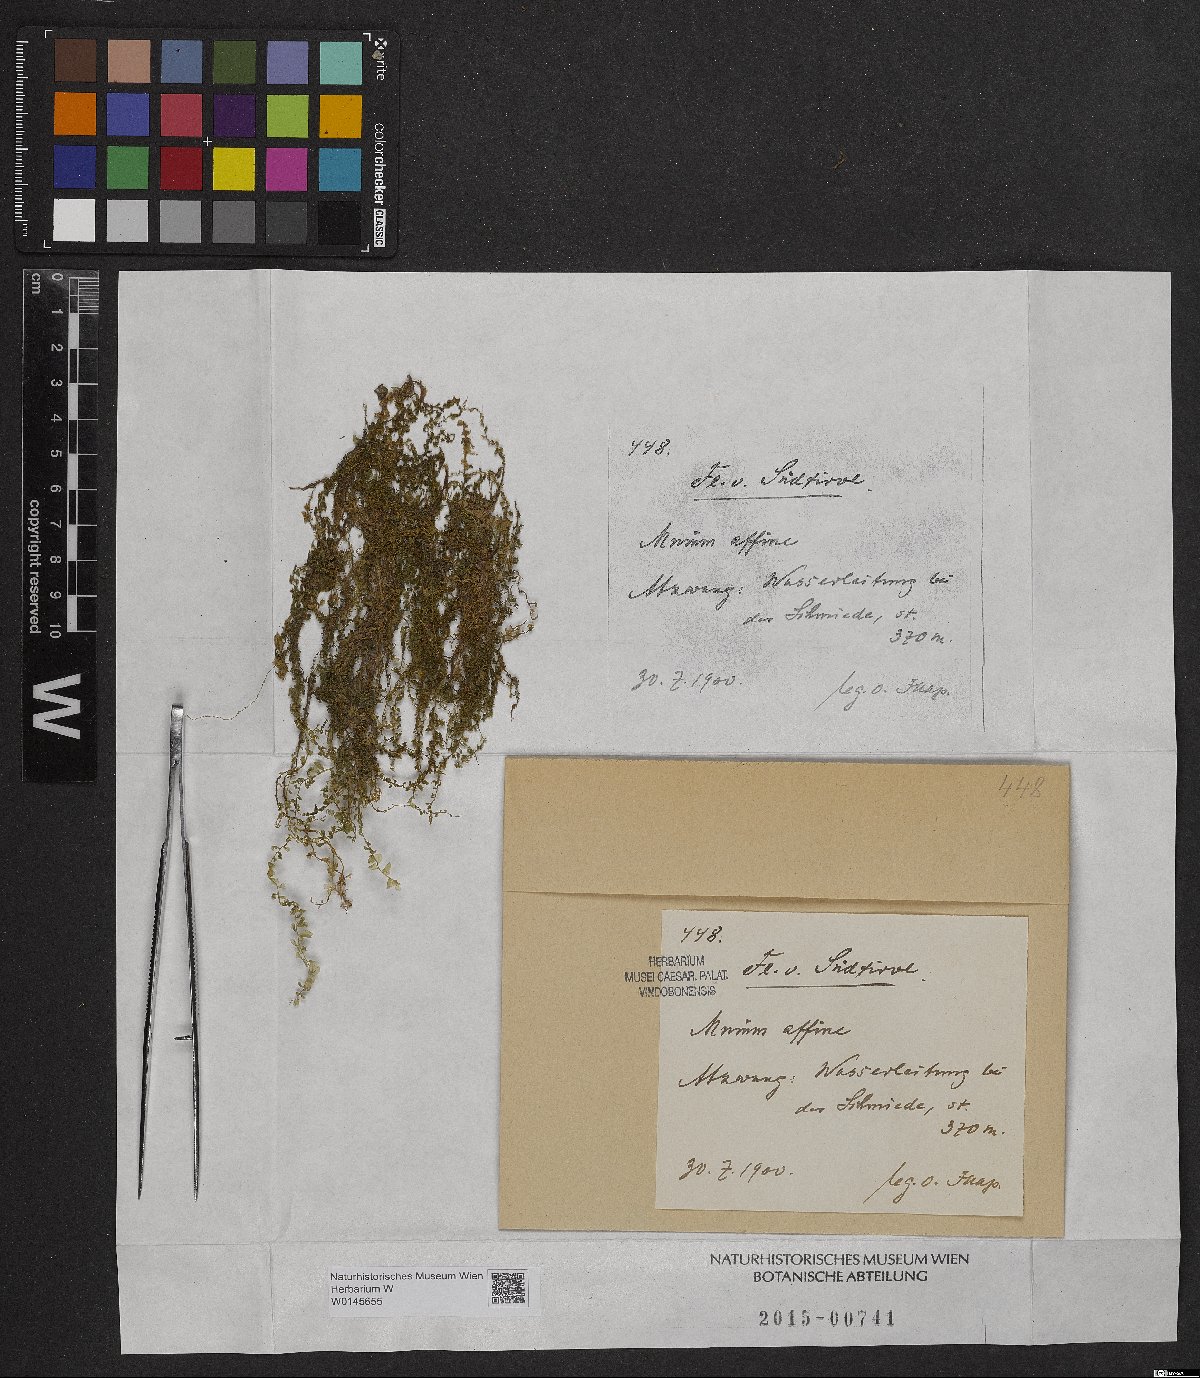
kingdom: Plantae
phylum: Bryophyta
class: Bryopsida
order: Bryales
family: Mniaceae
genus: Plagiomnium
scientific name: Plagiomnium affine
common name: Many-fruited thyme-moss
